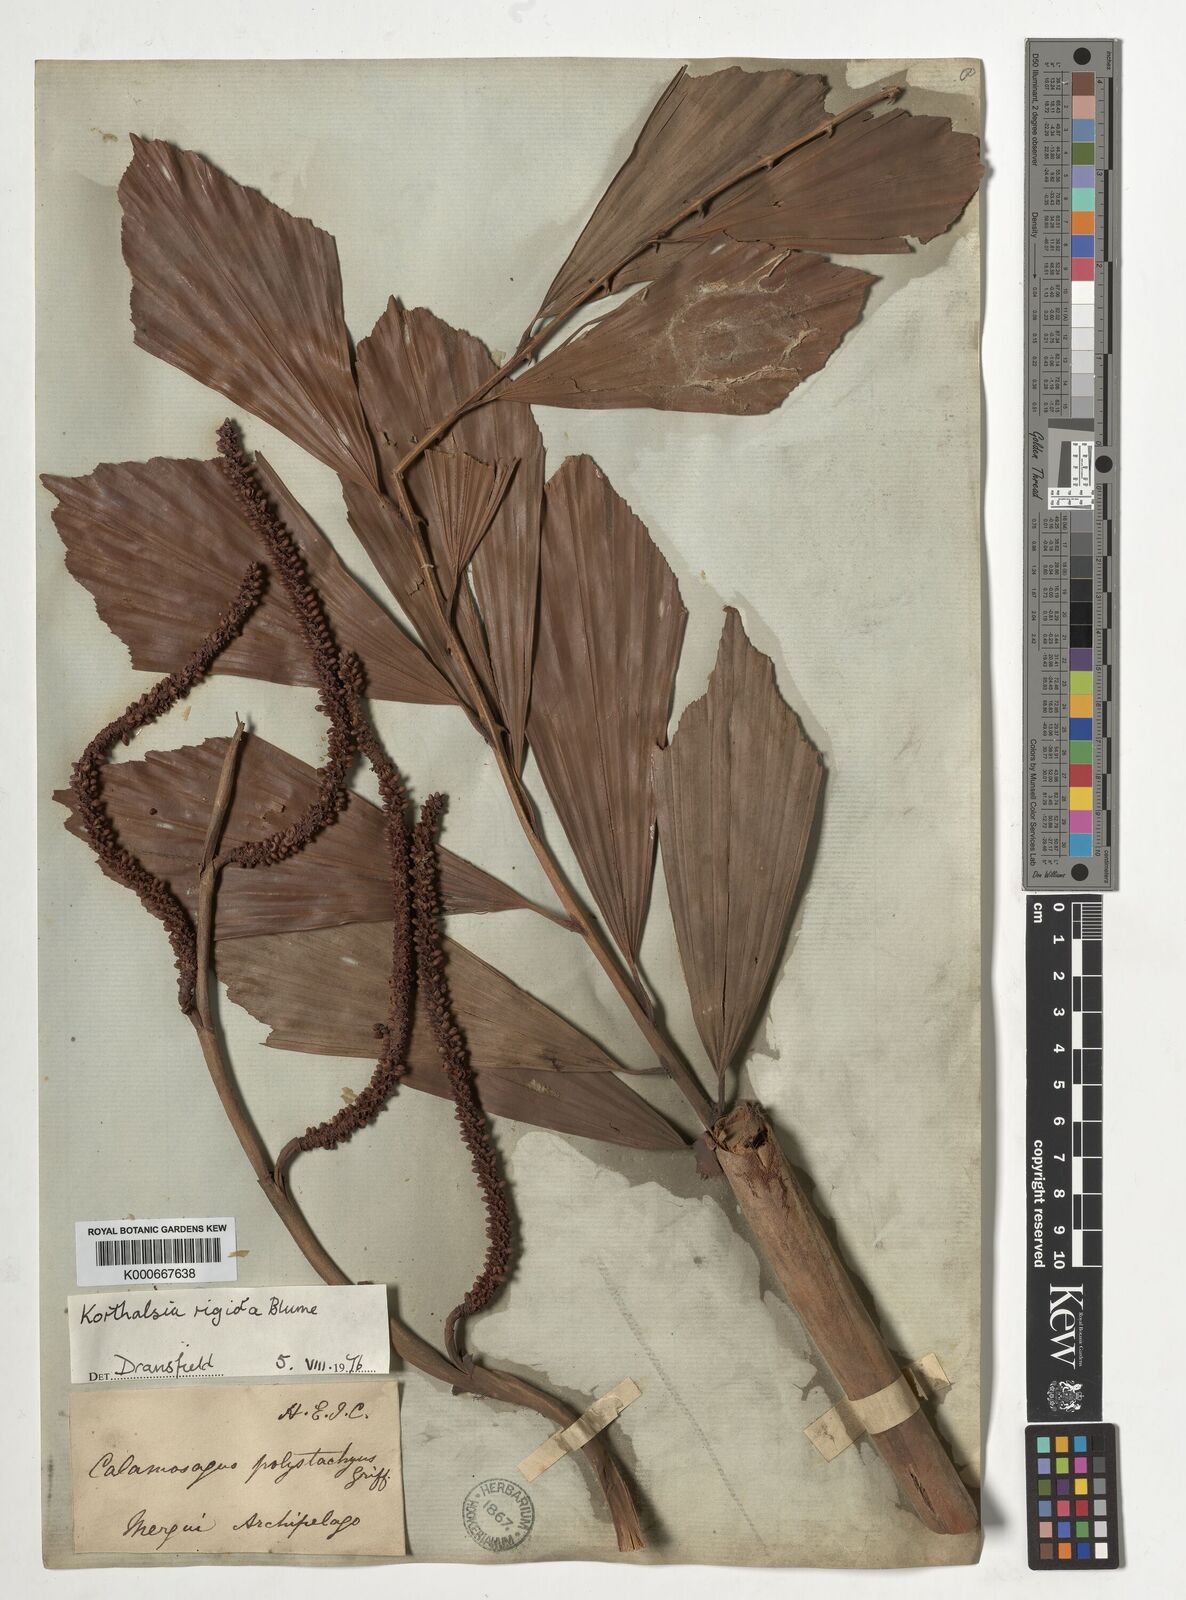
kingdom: Plantae
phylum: Tracheophyta
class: Liliopsida
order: Arecales
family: Arecaceae
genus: Korthalsia
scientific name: Korthalsia rigida
